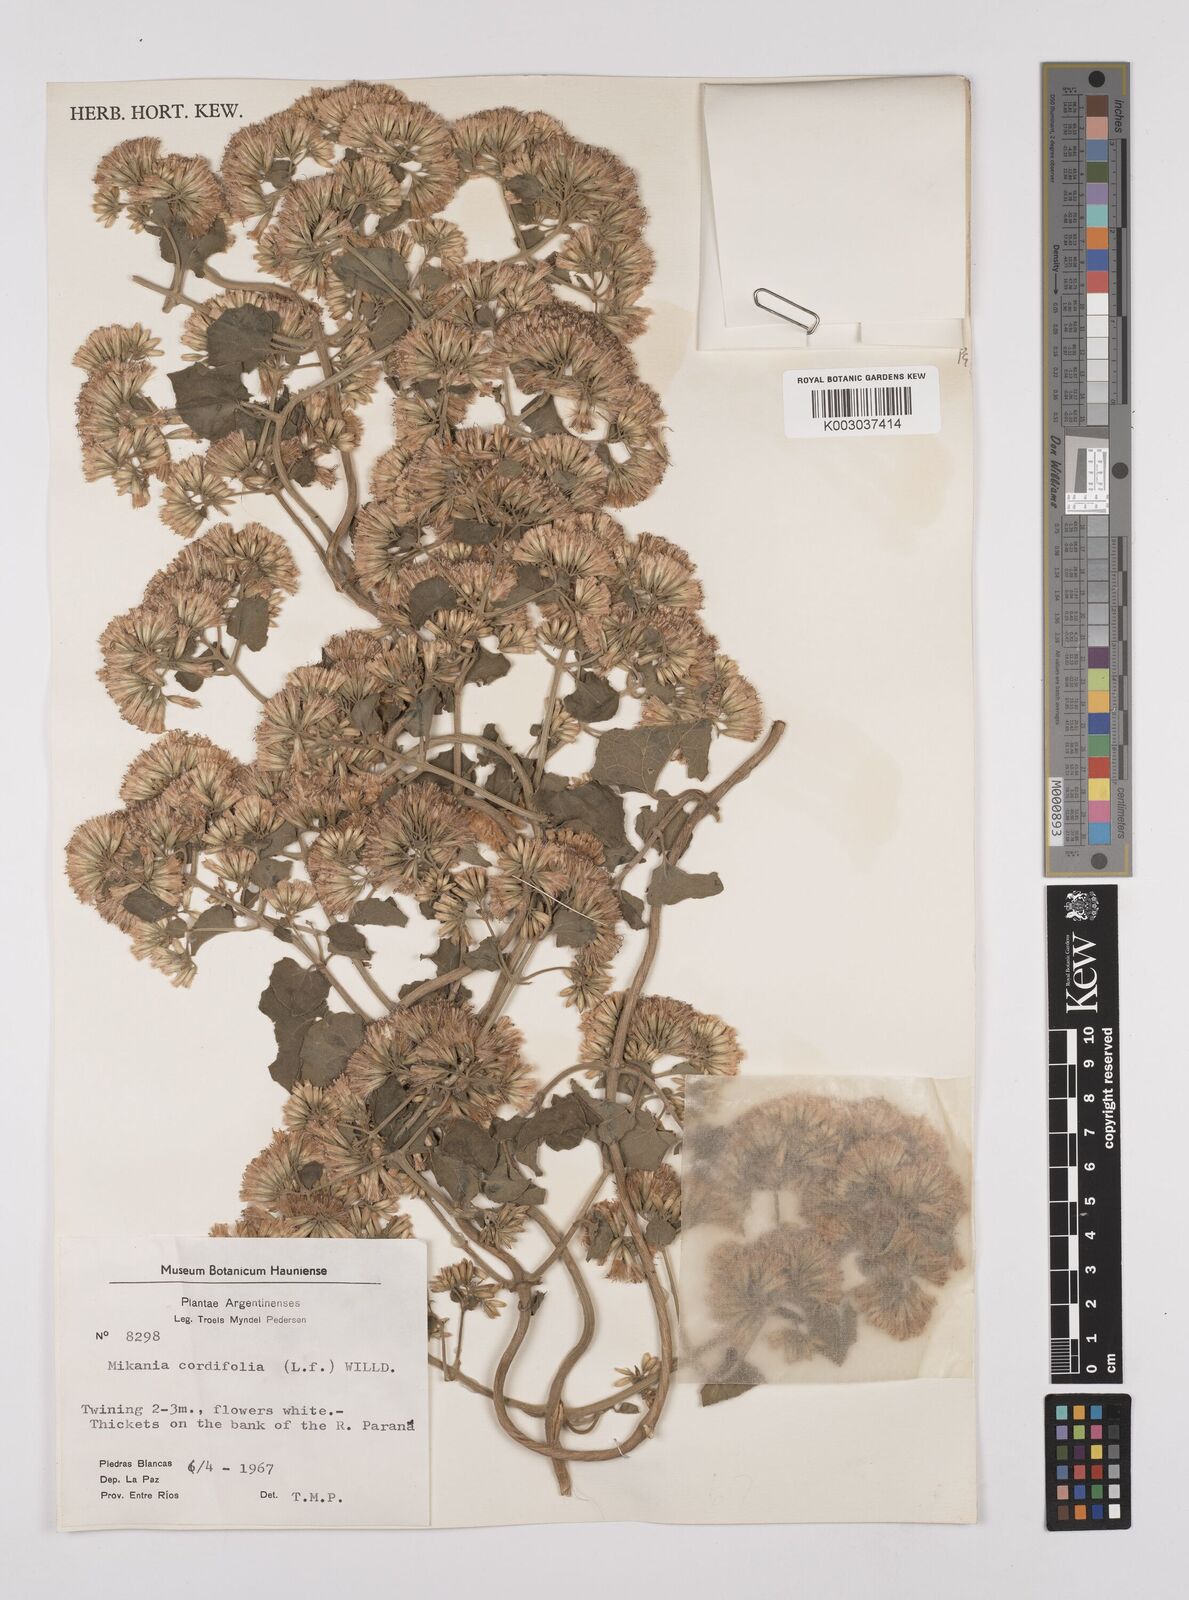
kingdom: Plantae
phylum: Tracheophyta
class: Magnoliopsida
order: Asterales
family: Asteraceae
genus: Mikania
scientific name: Mikania cordifolia
